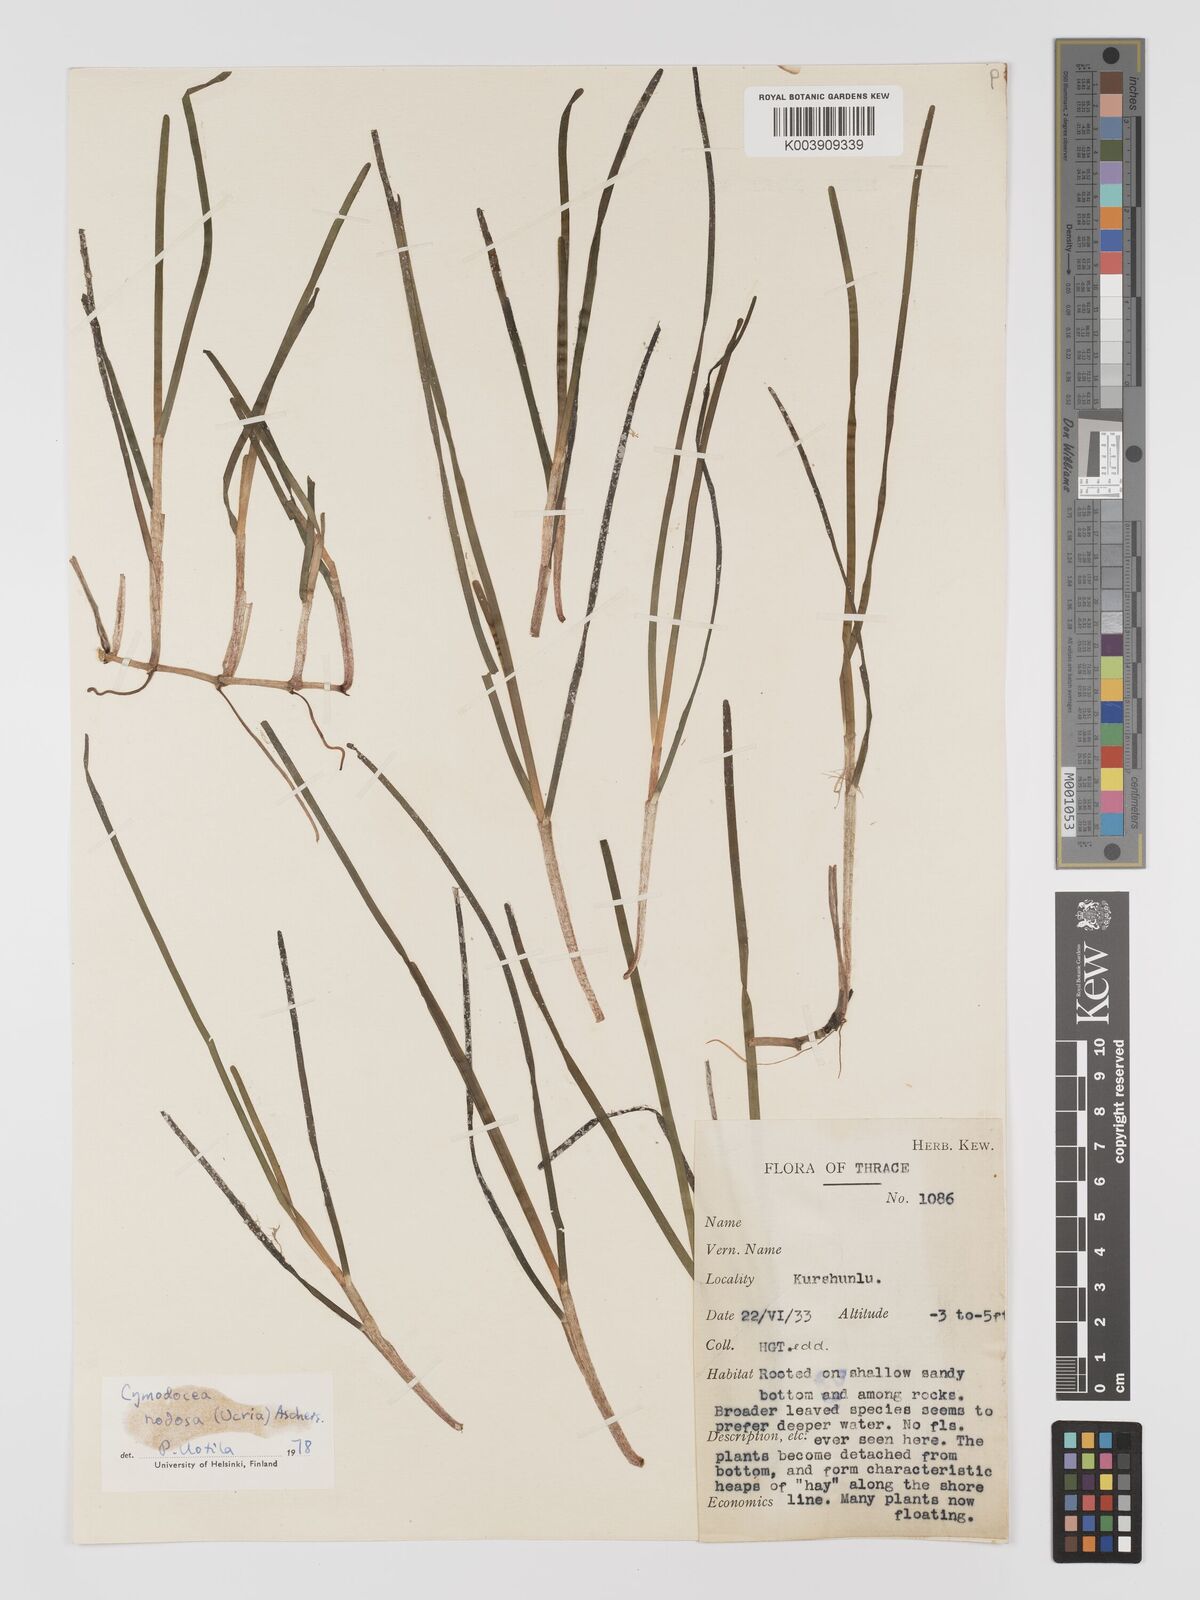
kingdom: Plantae
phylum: Tracheophyta
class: Liliopsida
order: Alismatales
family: Cymodoceaceae
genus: Cymodocea
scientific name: Cymodocea nodosa
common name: Slender seagrass
